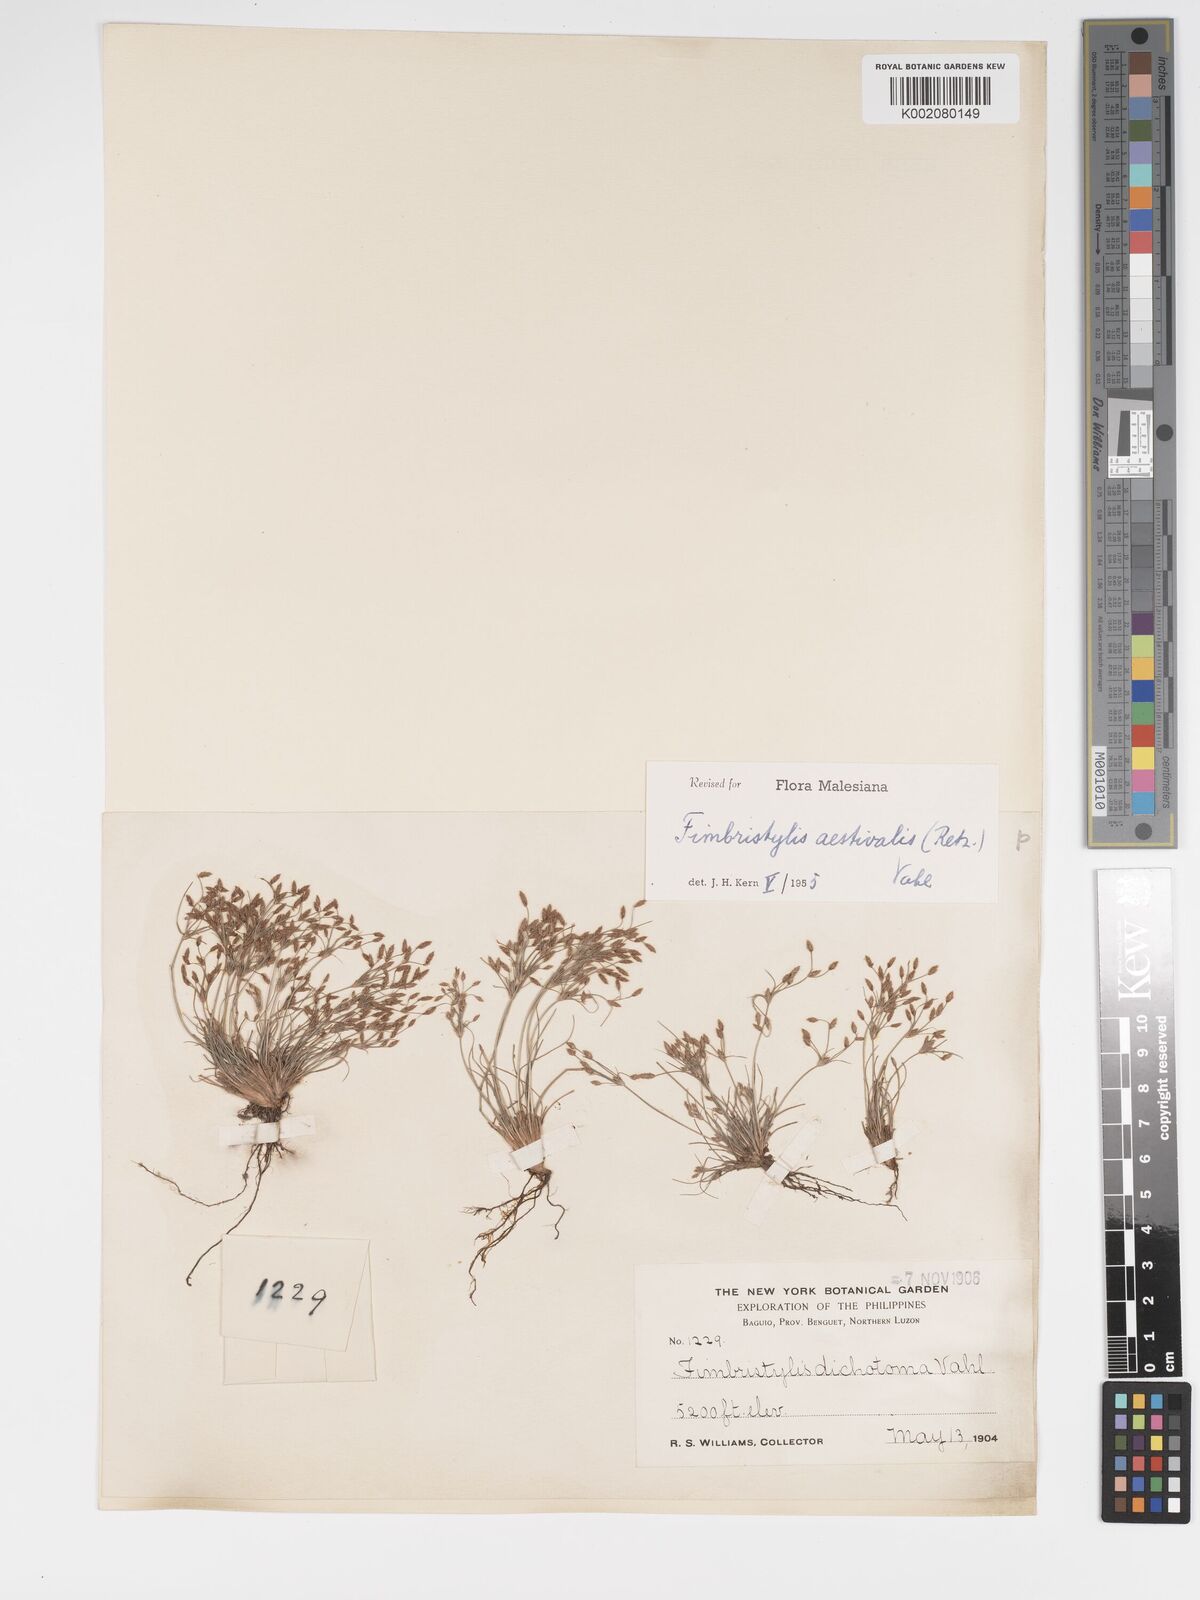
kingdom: Plantae
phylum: Tracheophyta
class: Liliopsida
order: Poales
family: Cyperaceae
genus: Fimbristylis
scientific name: Fimbristylis aestivalis
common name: Summer fimbry
